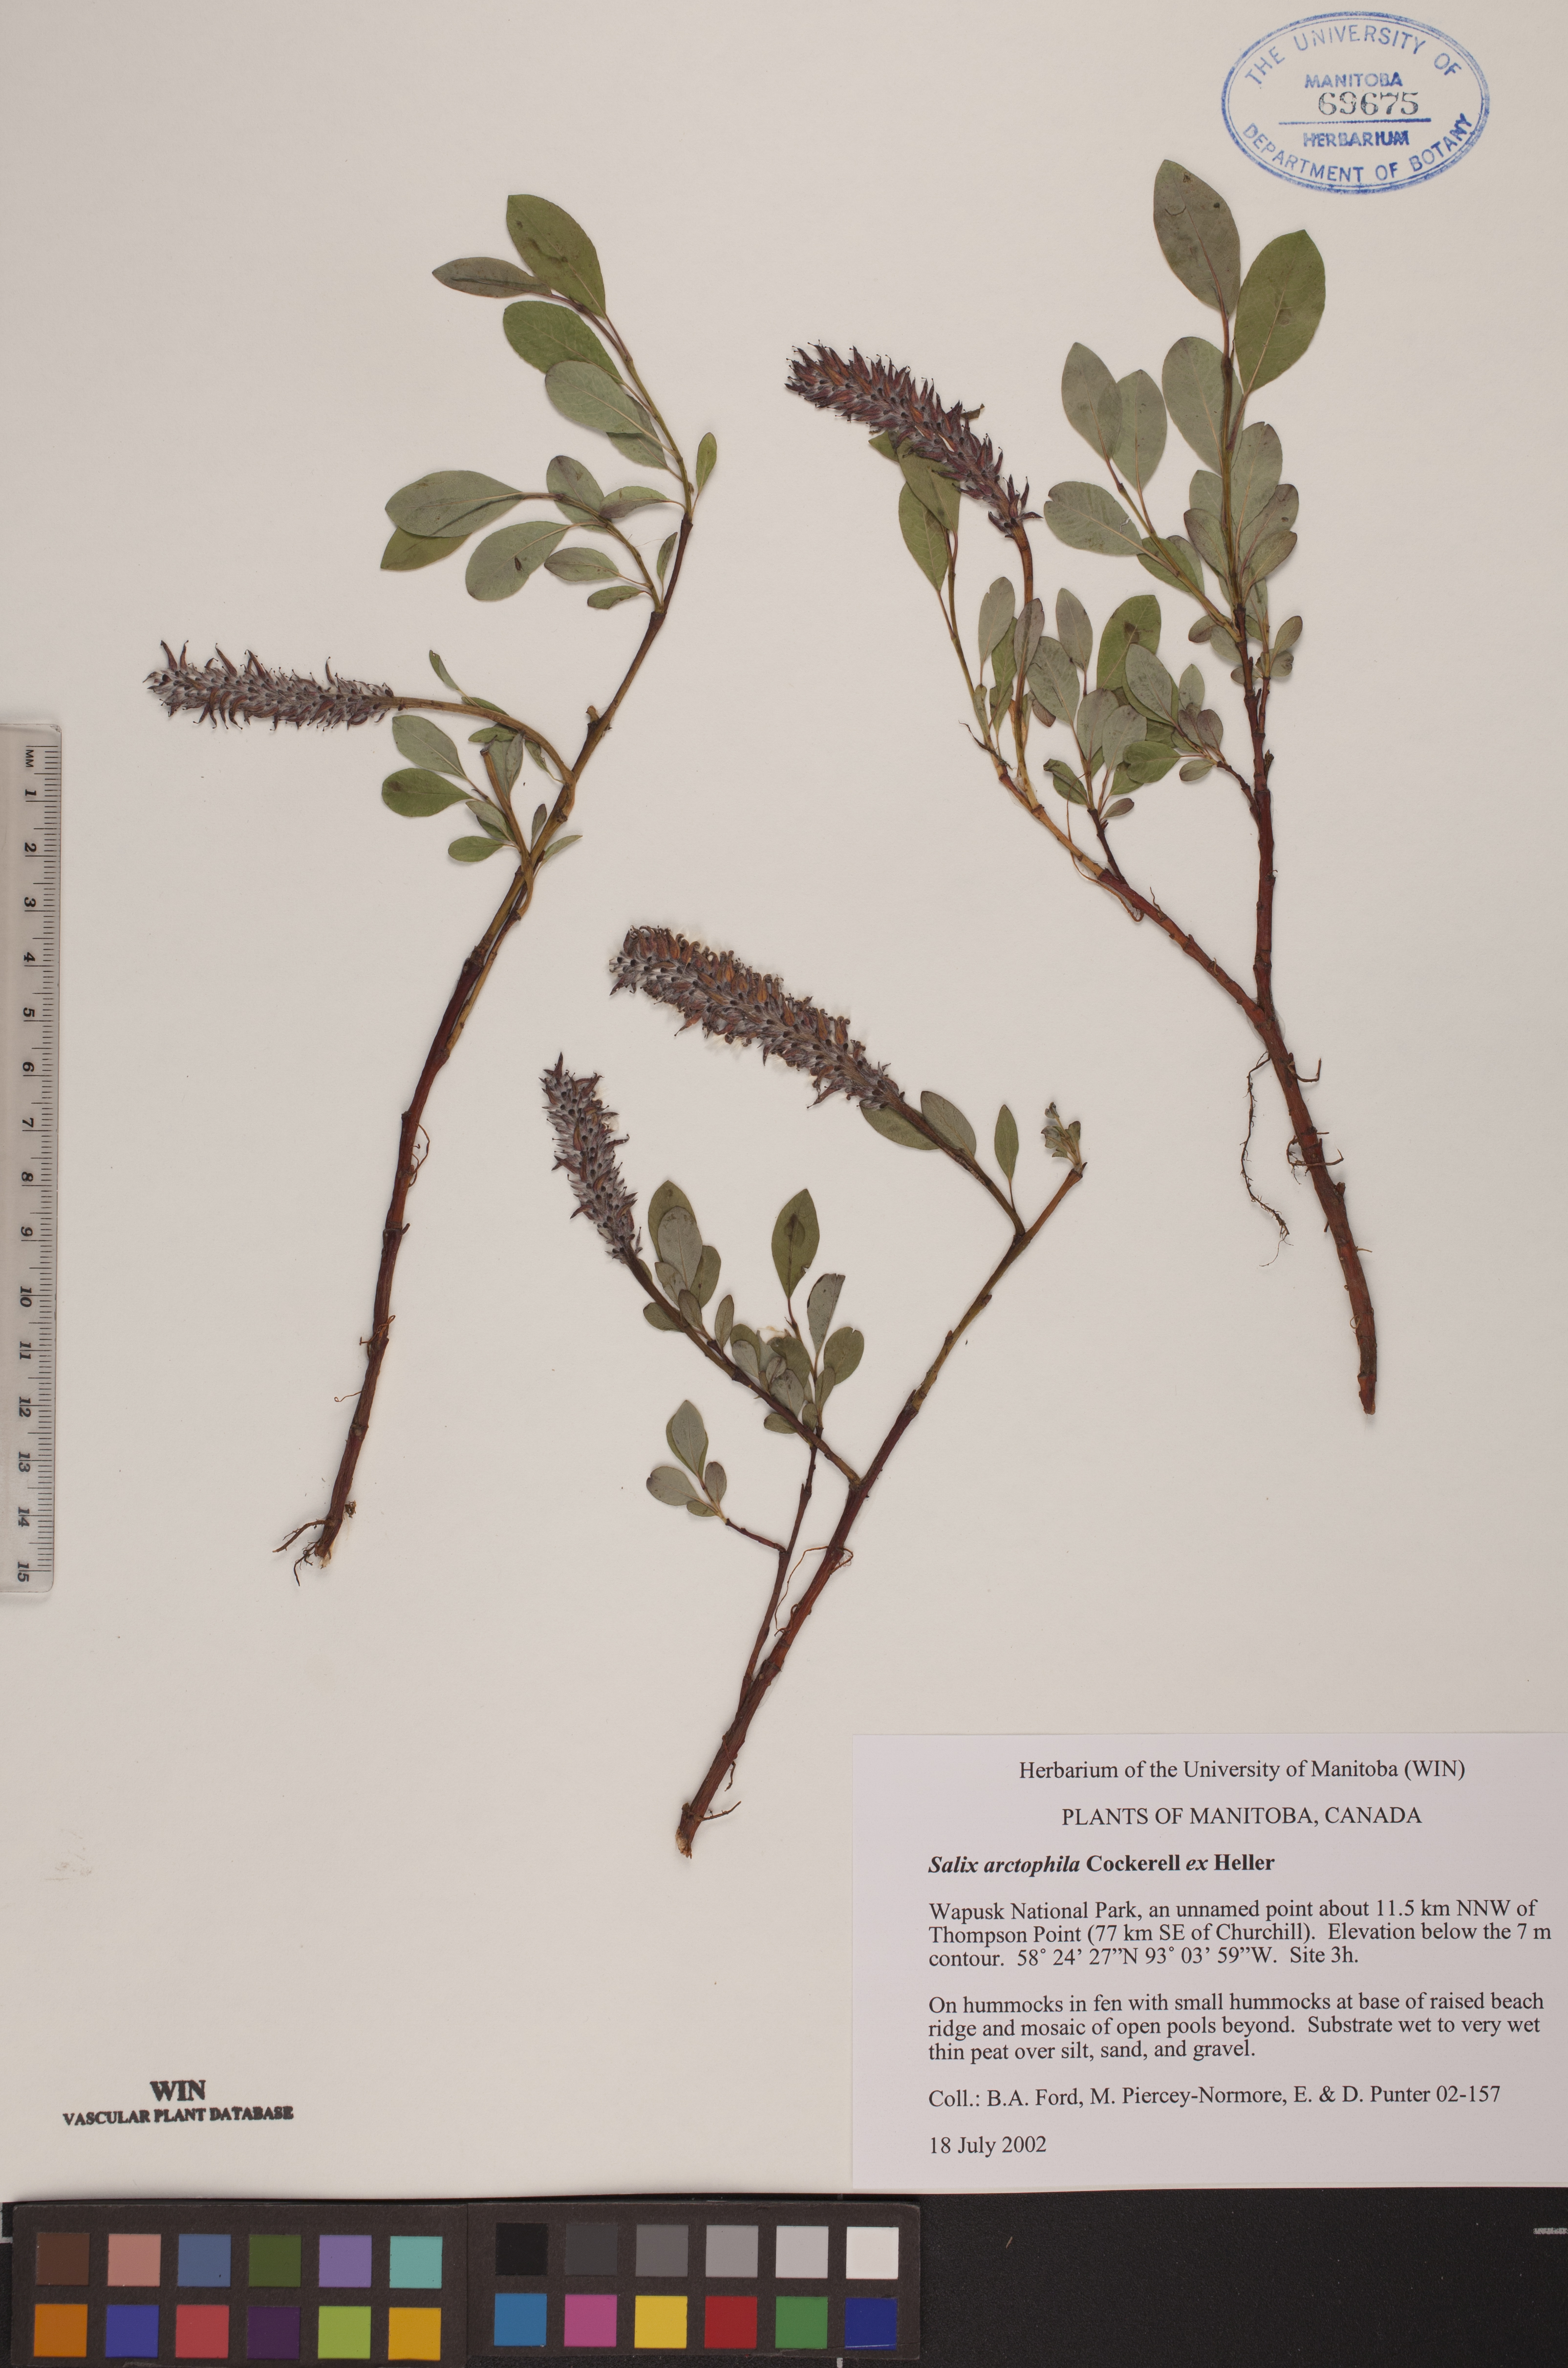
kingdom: Plantae
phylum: Tracheophyta
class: Magnoliopsida
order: Malpighiales
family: Salicaceae
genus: Salix
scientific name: Salix arctophila
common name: Greenland willow
